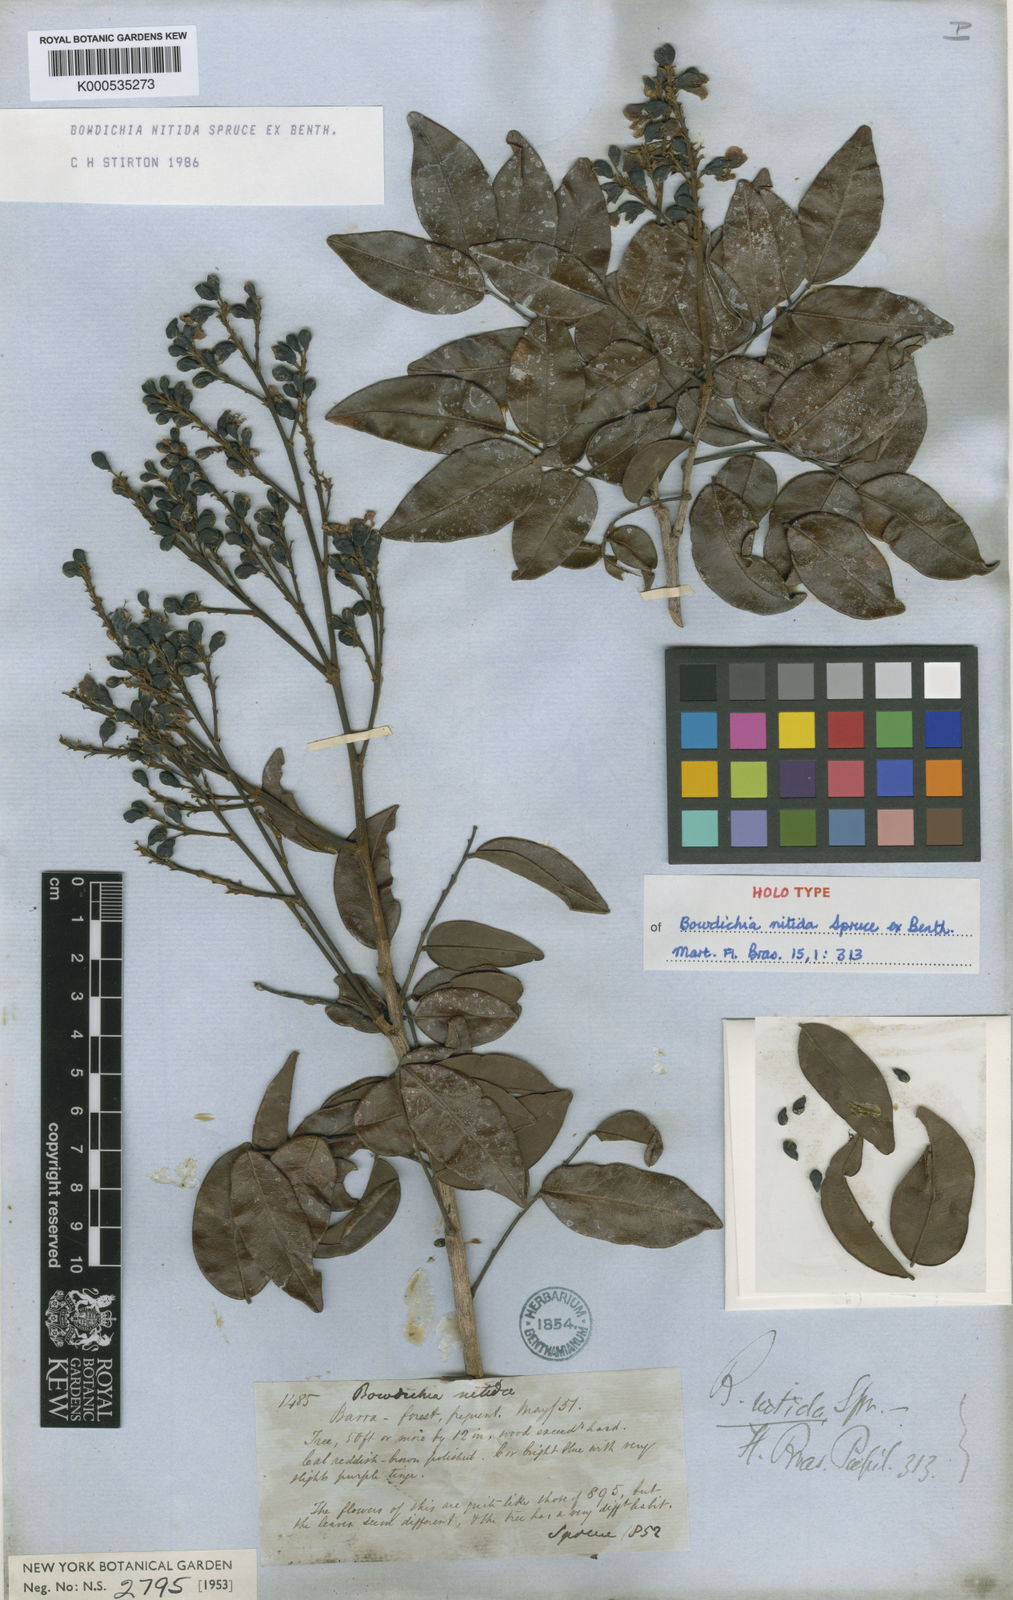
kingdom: Plantae
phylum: Tracheophyta
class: Magnoliopsida
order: Fabales
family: Fabaceae
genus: Bowdichia
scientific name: Bowdichia nitida
